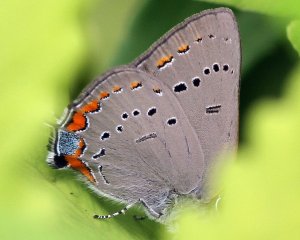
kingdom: Animalia
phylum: Arthropoda
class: Insecta
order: Lepidoptera
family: Lycaenidae
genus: Strymon
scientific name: Strymon acadica
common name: Acadian Hairstreak
